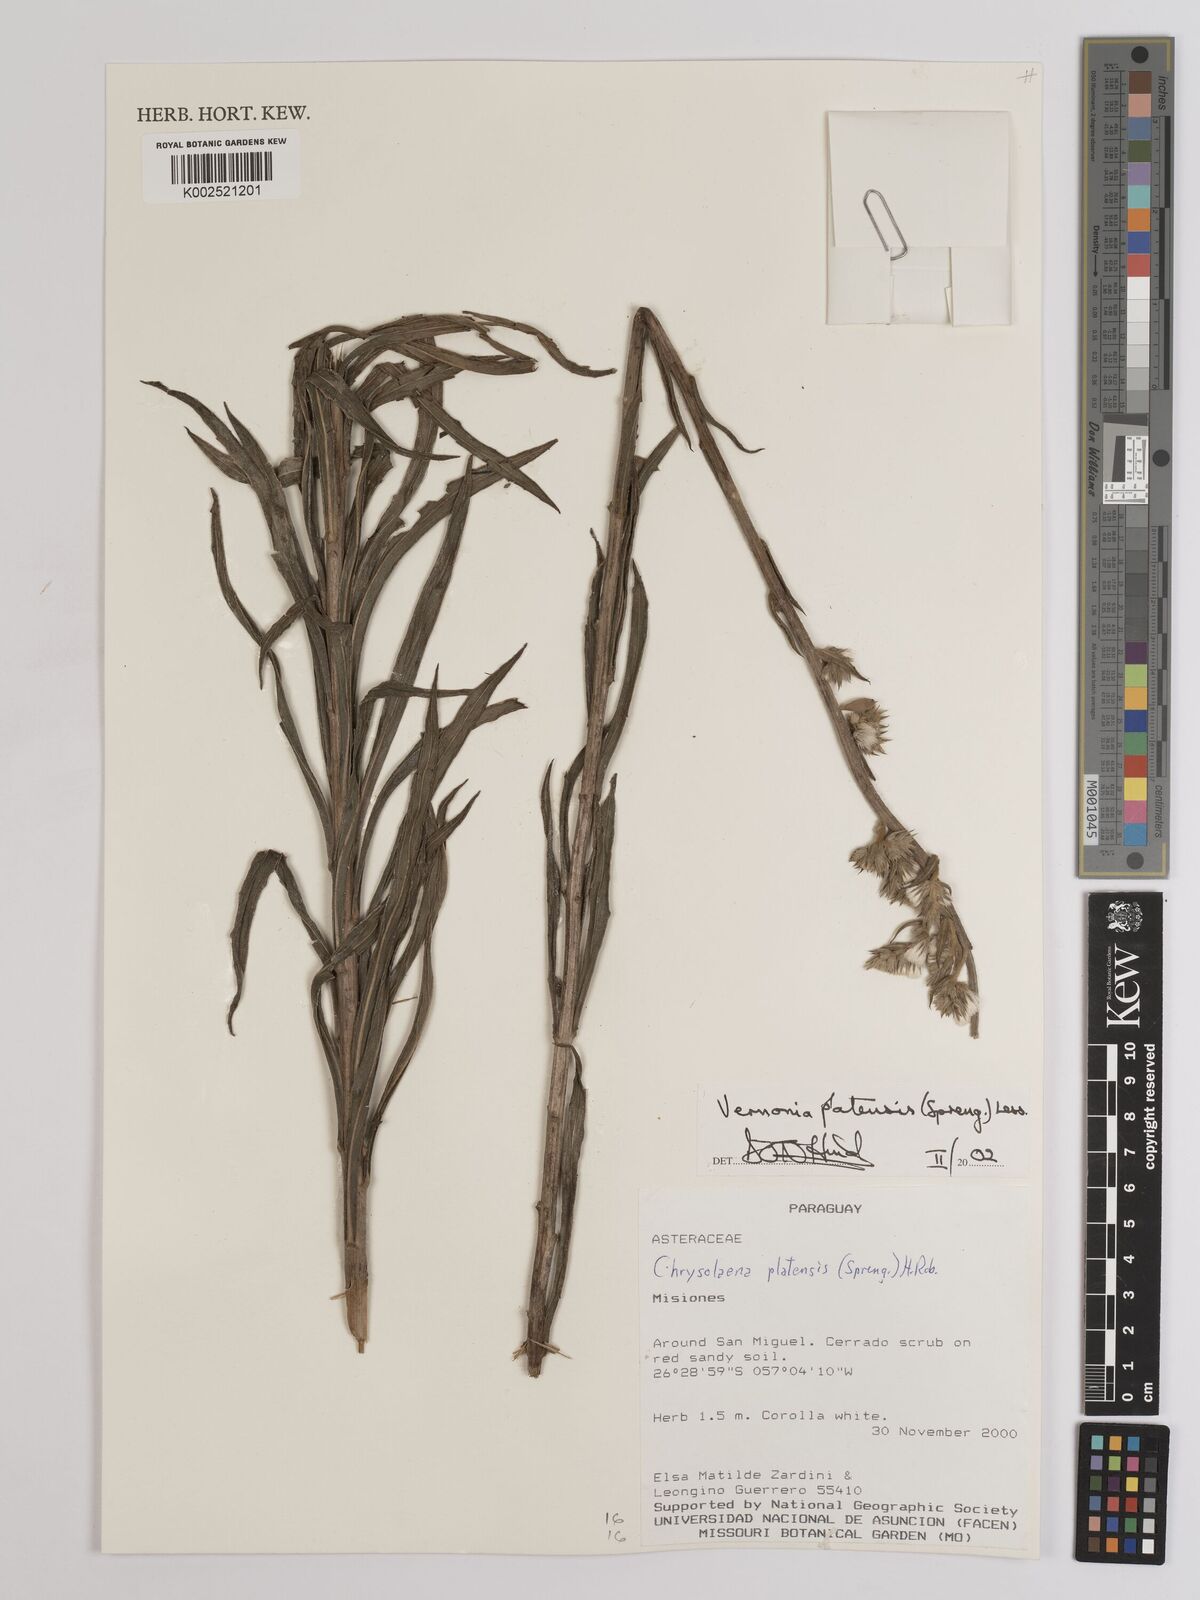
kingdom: Plantae
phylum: Tracheophyta
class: Magnoliopsida
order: Asterales
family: Asteraceae
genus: Chrysolaena
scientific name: Chrysolaena platensis
